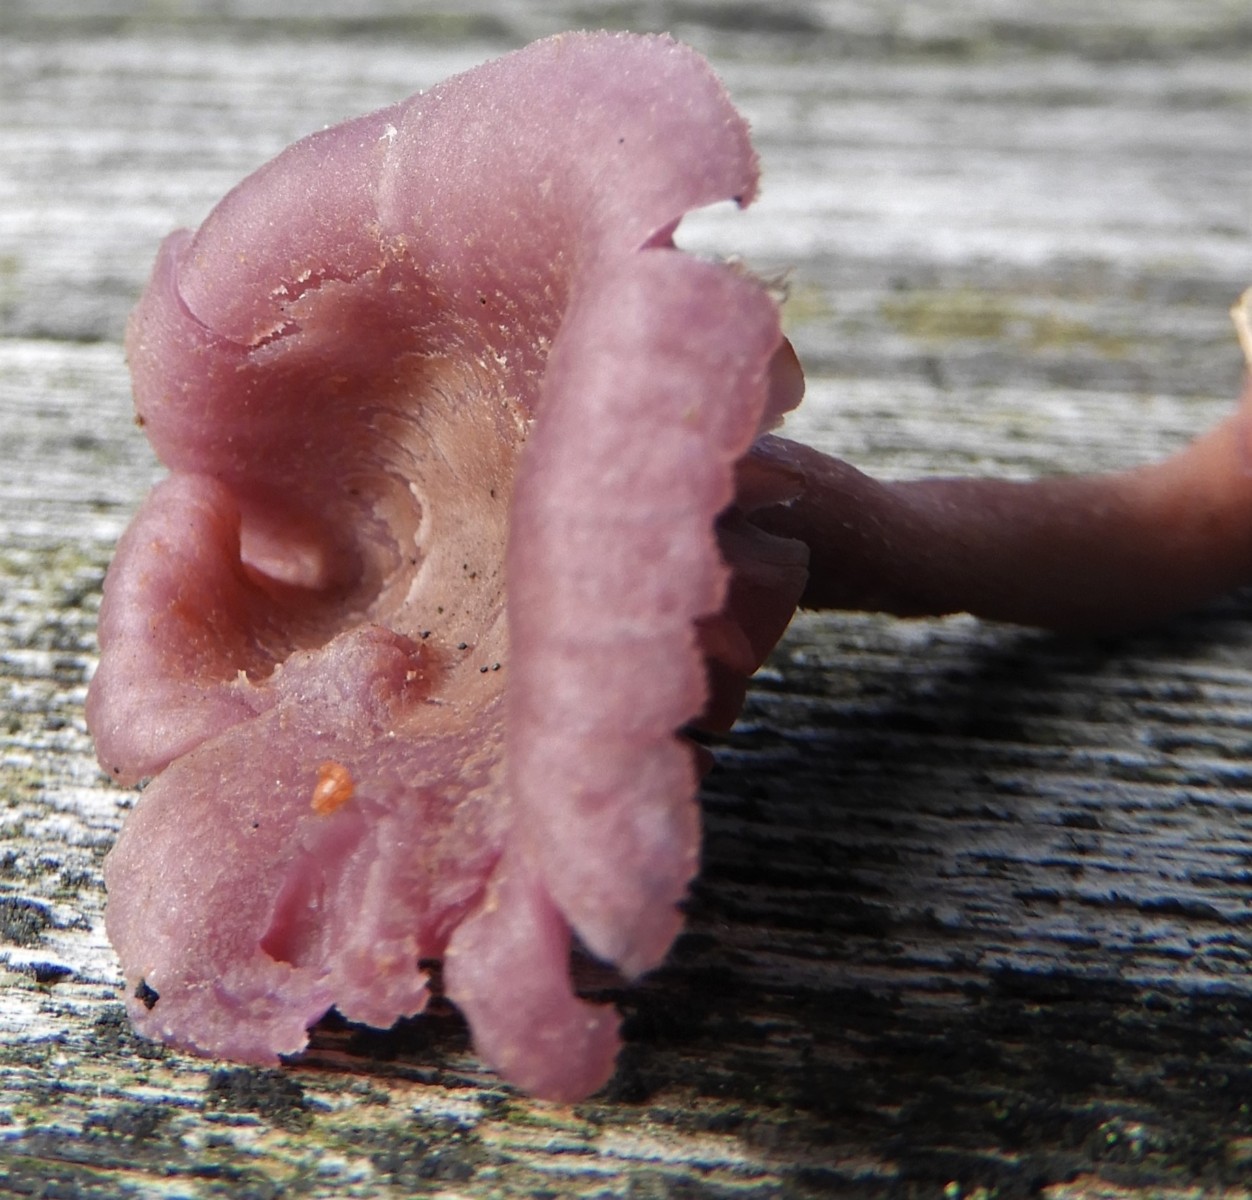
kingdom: Fungi
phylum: Basidiomycota
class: Agaricomycetes
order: Agaricales
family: Hydnangiaceae
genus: Laccaria
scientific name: Laccaria amethystina
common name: violet ametysthat
